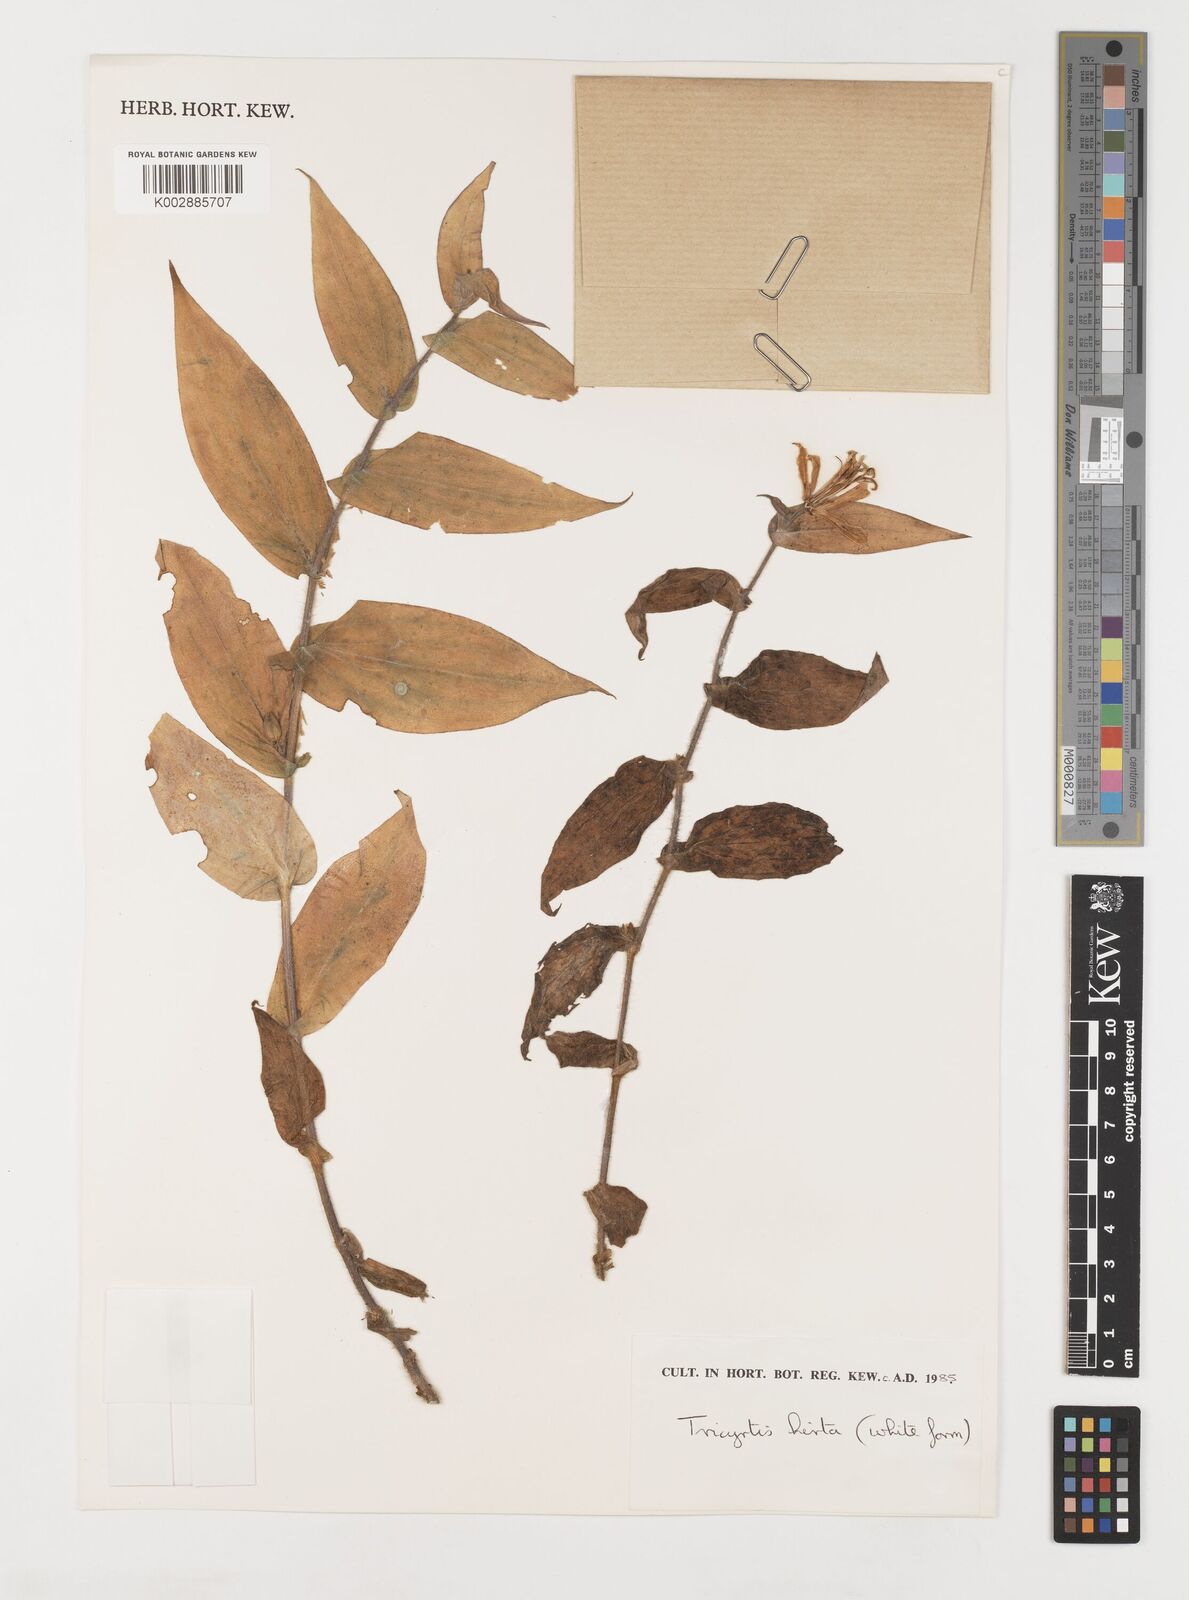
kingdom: Plantae
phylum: Tracheophyta
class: Liliopsida
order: Liliales
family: Liliaceae
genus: Tricyrtis
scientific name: Tricyrtis hirta
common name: Toadlily
